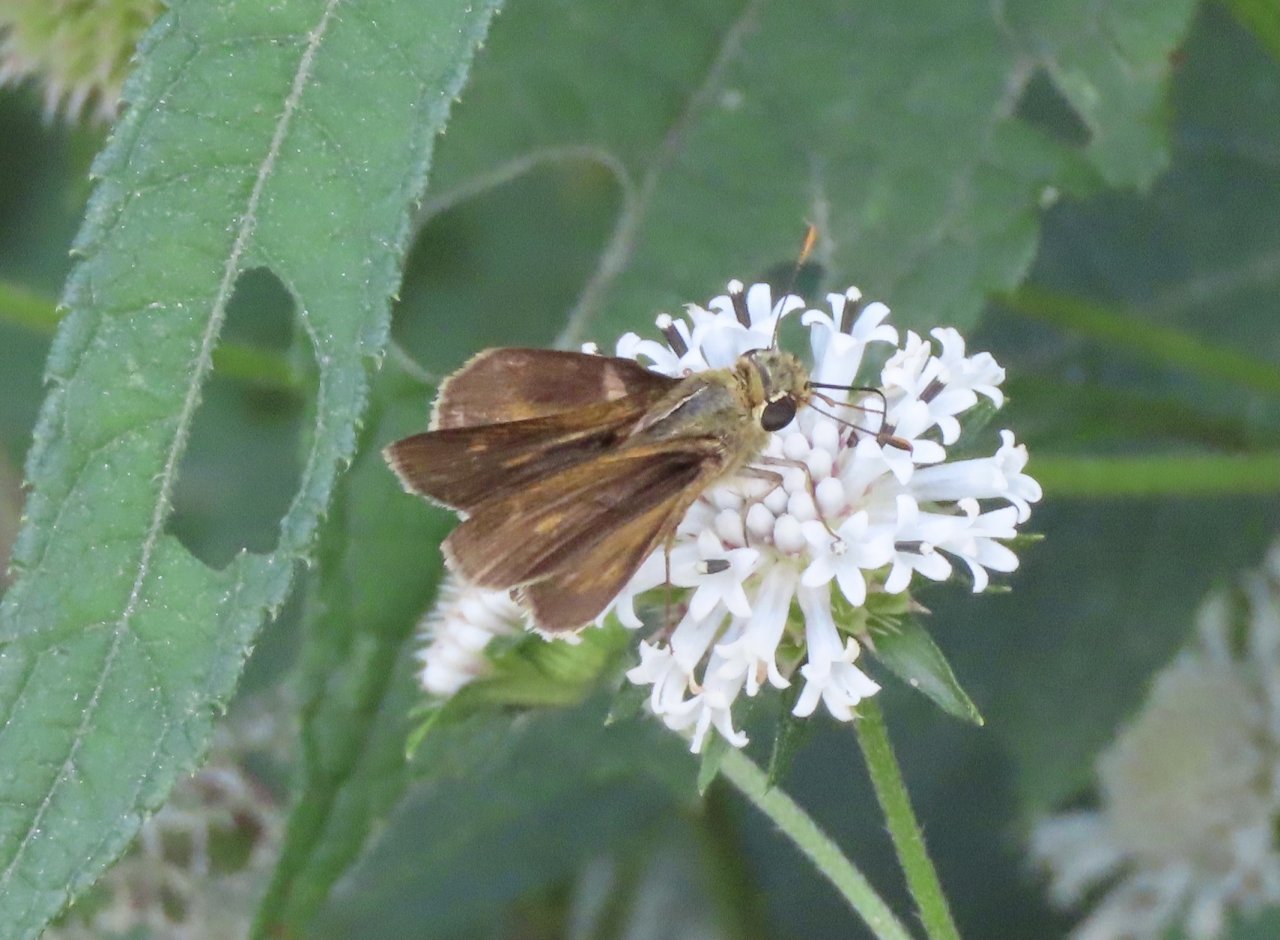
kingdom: Animalia
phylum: Arthropoda
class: Insecta
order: Lepidoptera
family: Hesperiidae
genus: Polites
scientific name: Polites egeremet
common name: Northern Broken-Dash
